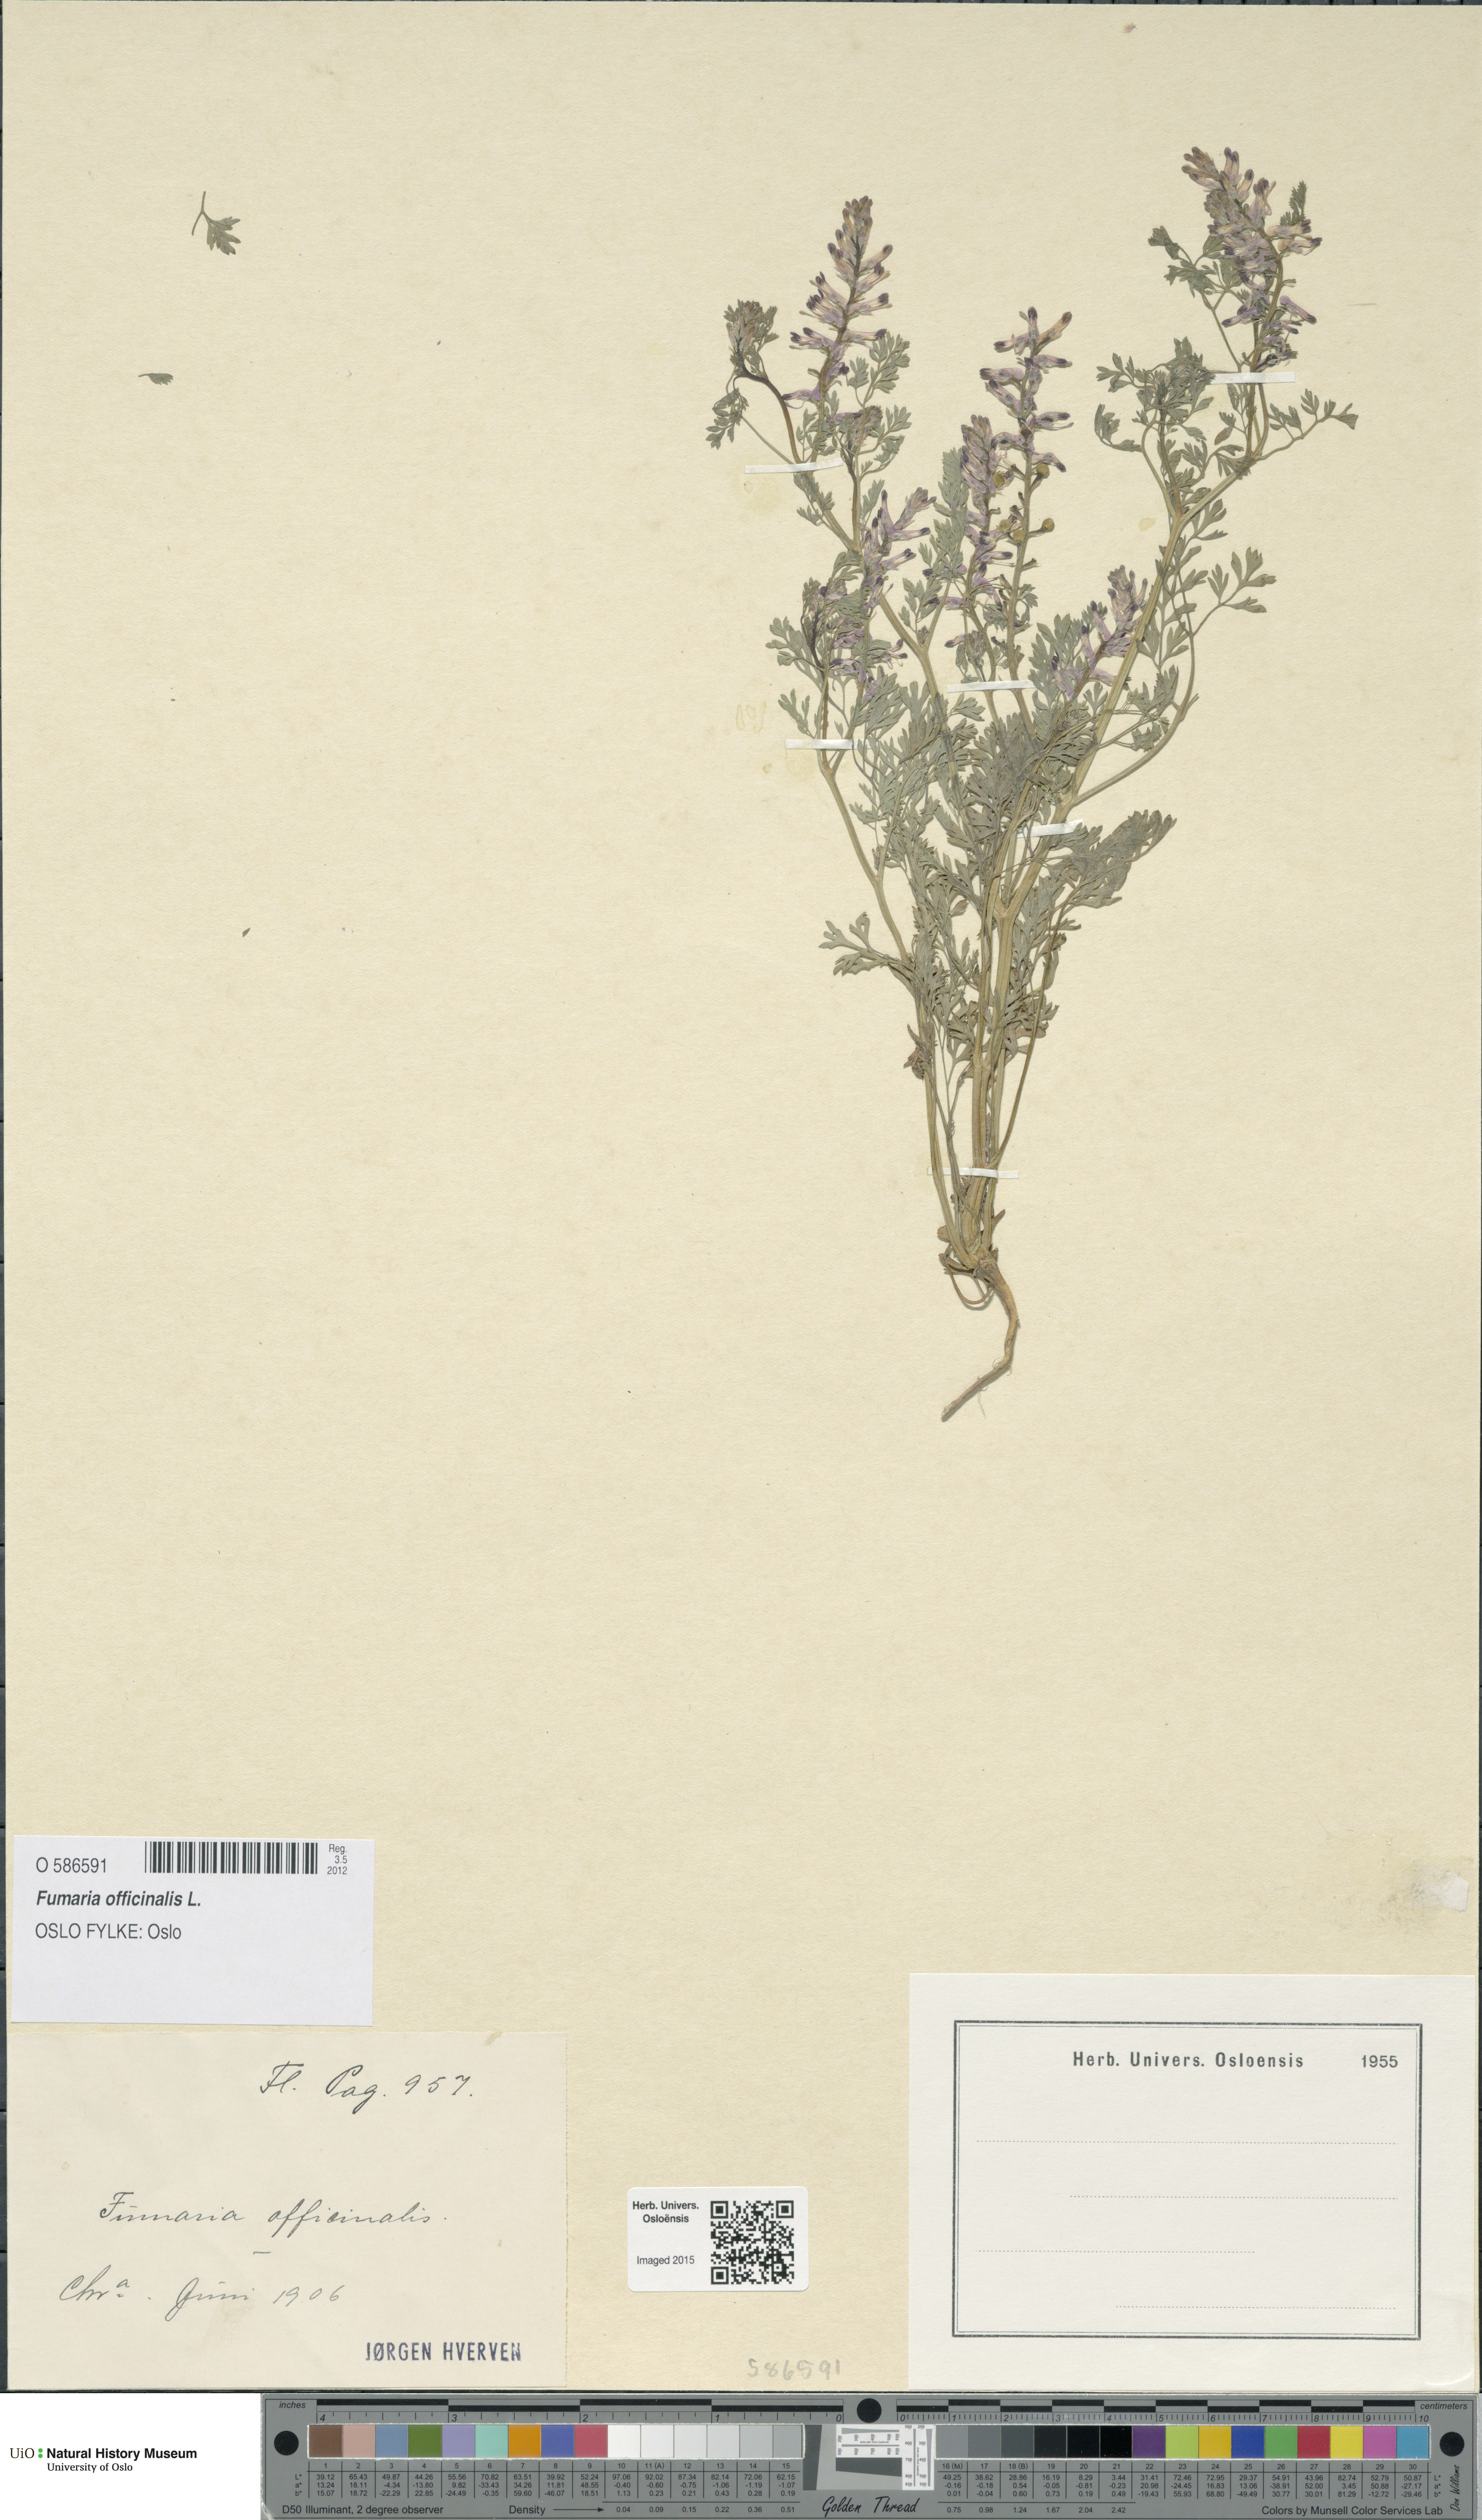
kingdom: Plantae
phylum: Tracheophyta
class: Magnoliopsida
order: Ranunculales
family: Papaveraceae
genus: Fumaria
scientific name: Fumaria officinalis
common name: Common fumitory
